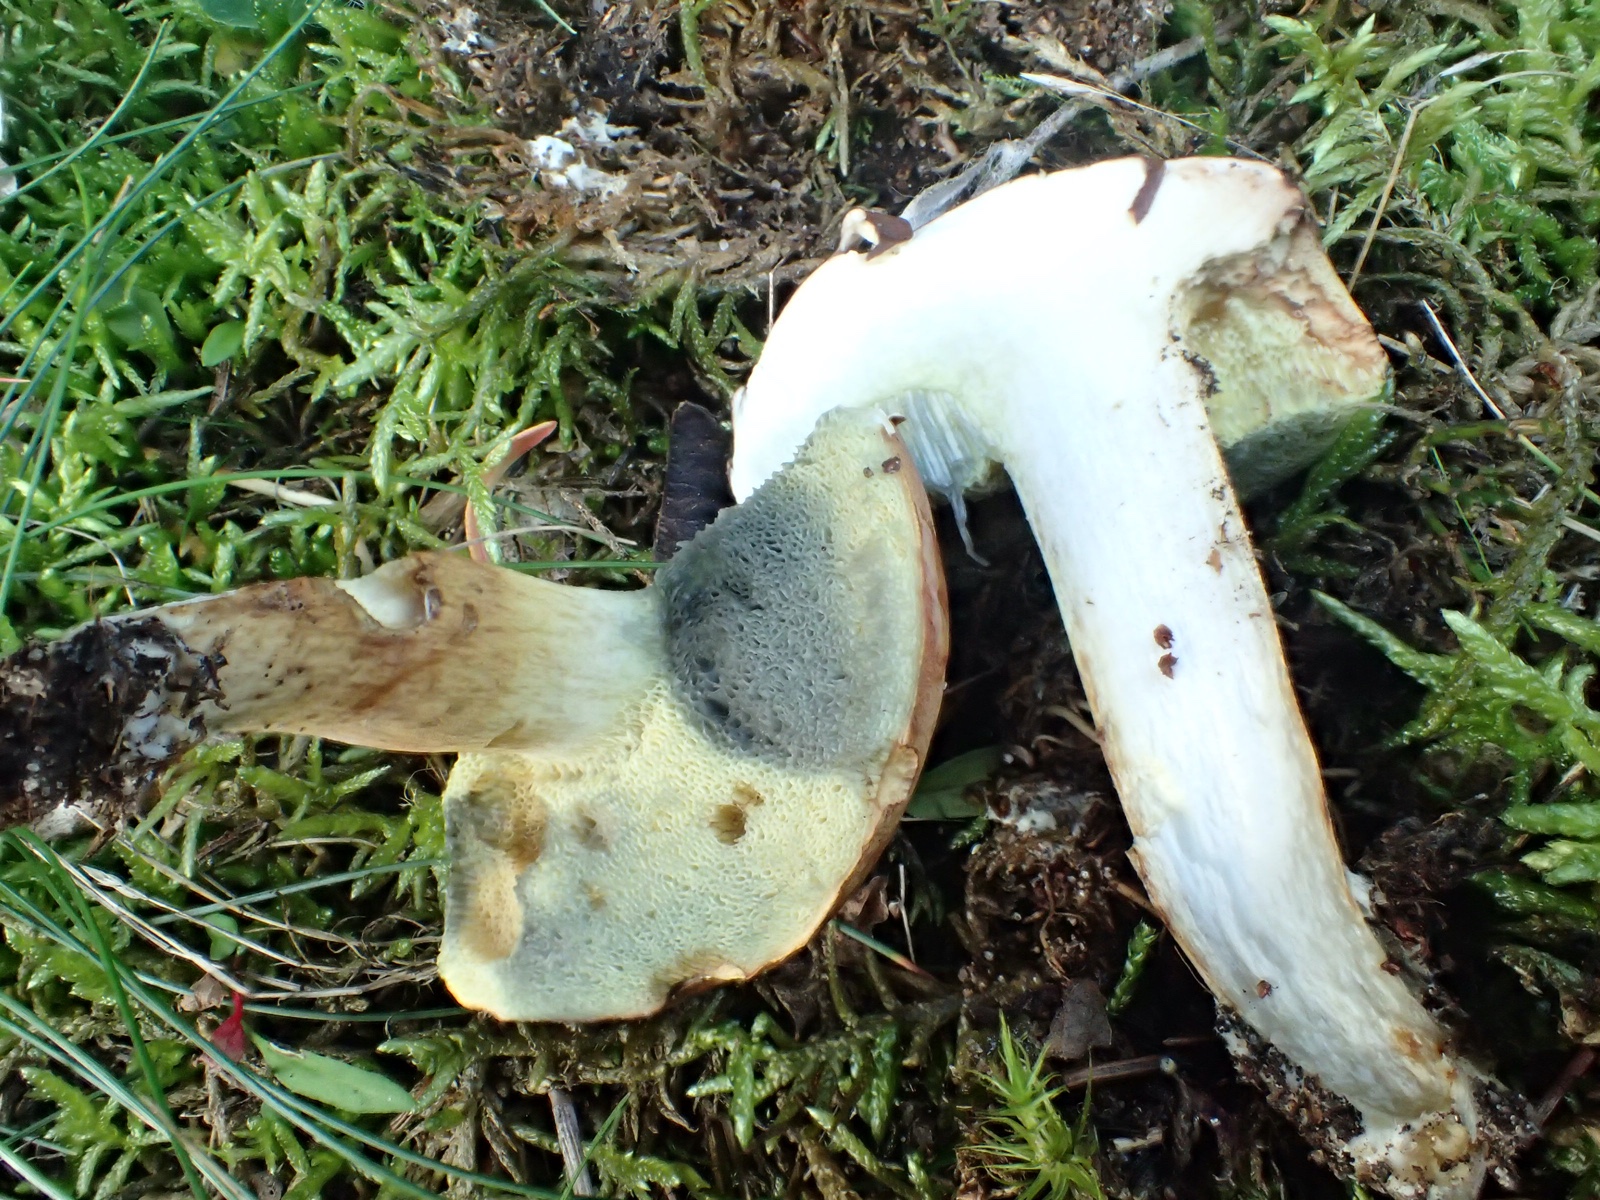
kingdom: Fungi
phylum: Basidiomycota
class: Agaricomycetes
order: Boletales
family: Boletaceae
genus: Imleria
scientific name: Imleria badia
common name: brunstokket rørhat
